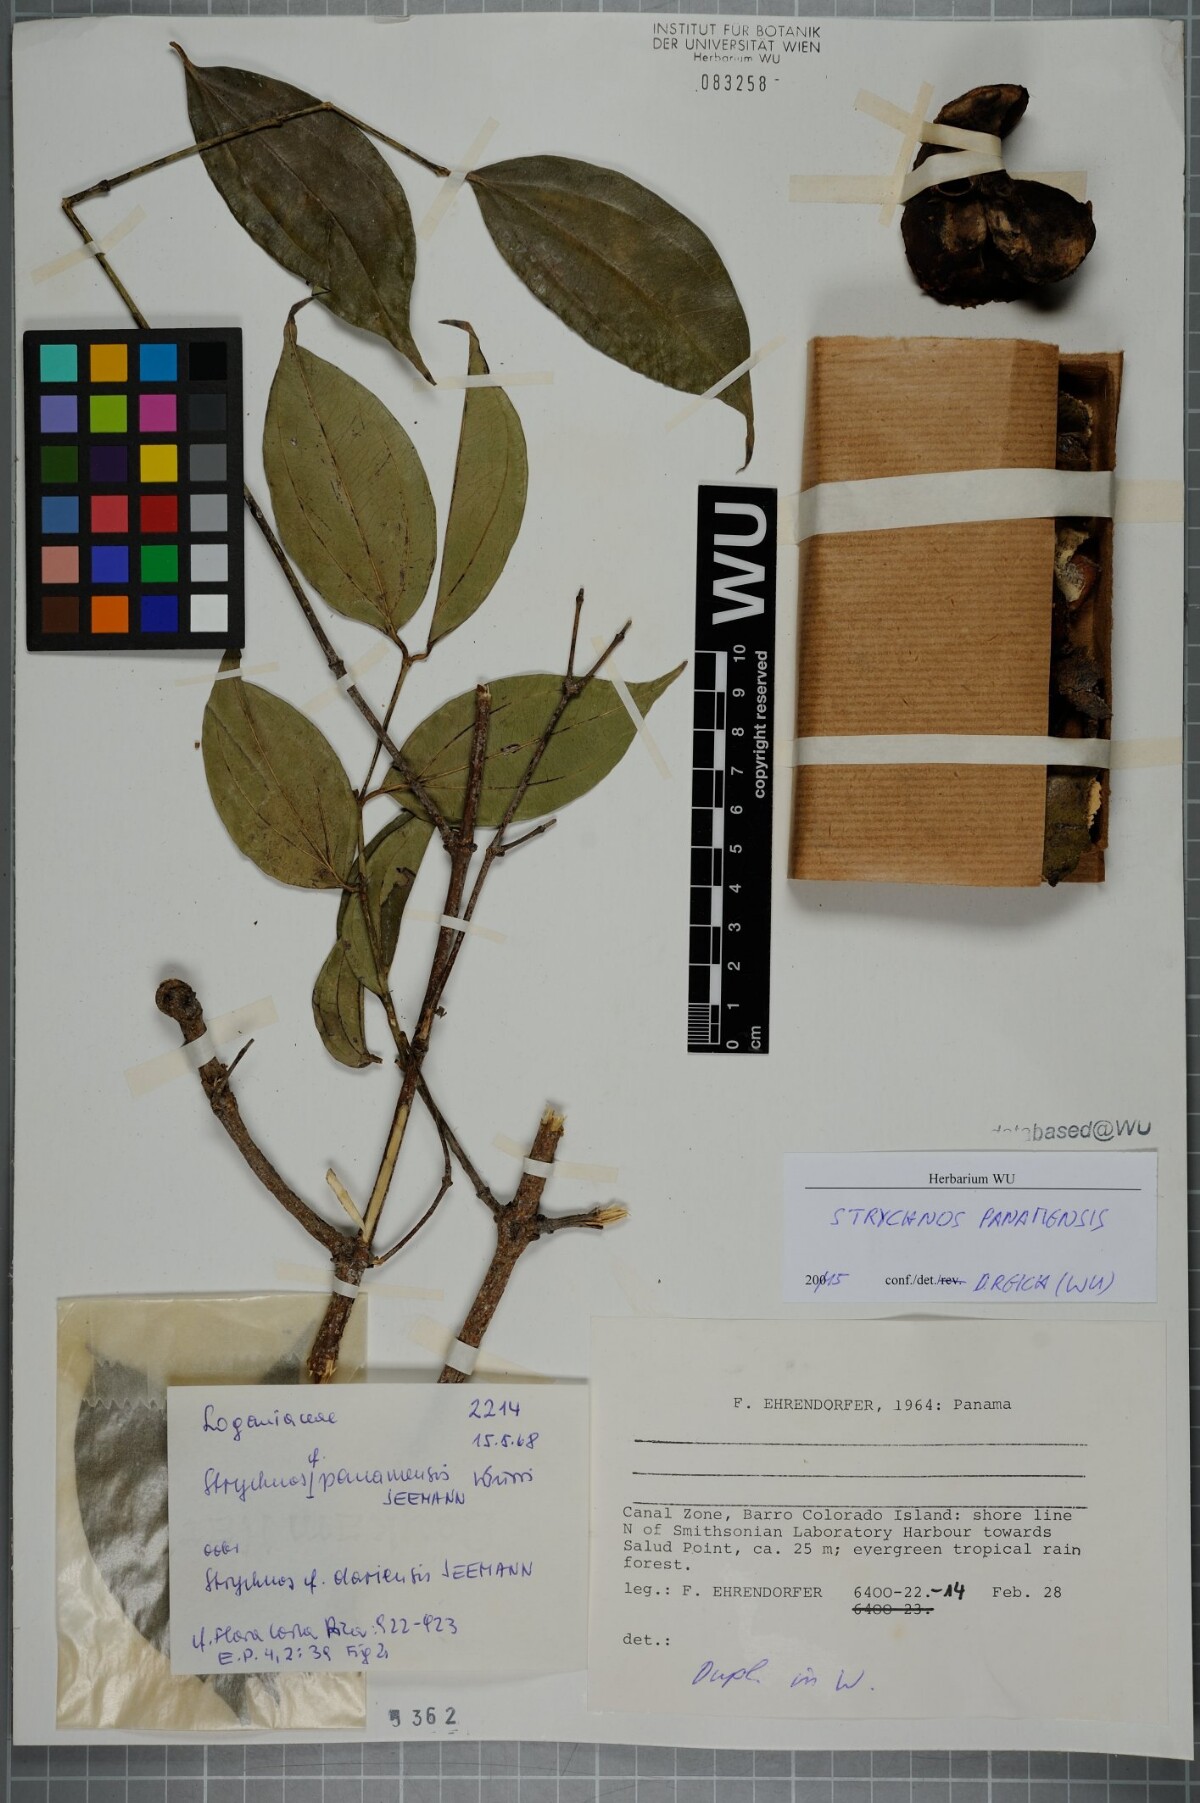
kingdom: Plantae
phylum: Tracheophyta
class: Magnoliopsida
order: Gentianales
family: Loganiaceae
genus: Strychnos
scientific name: Strychnos panamensis
